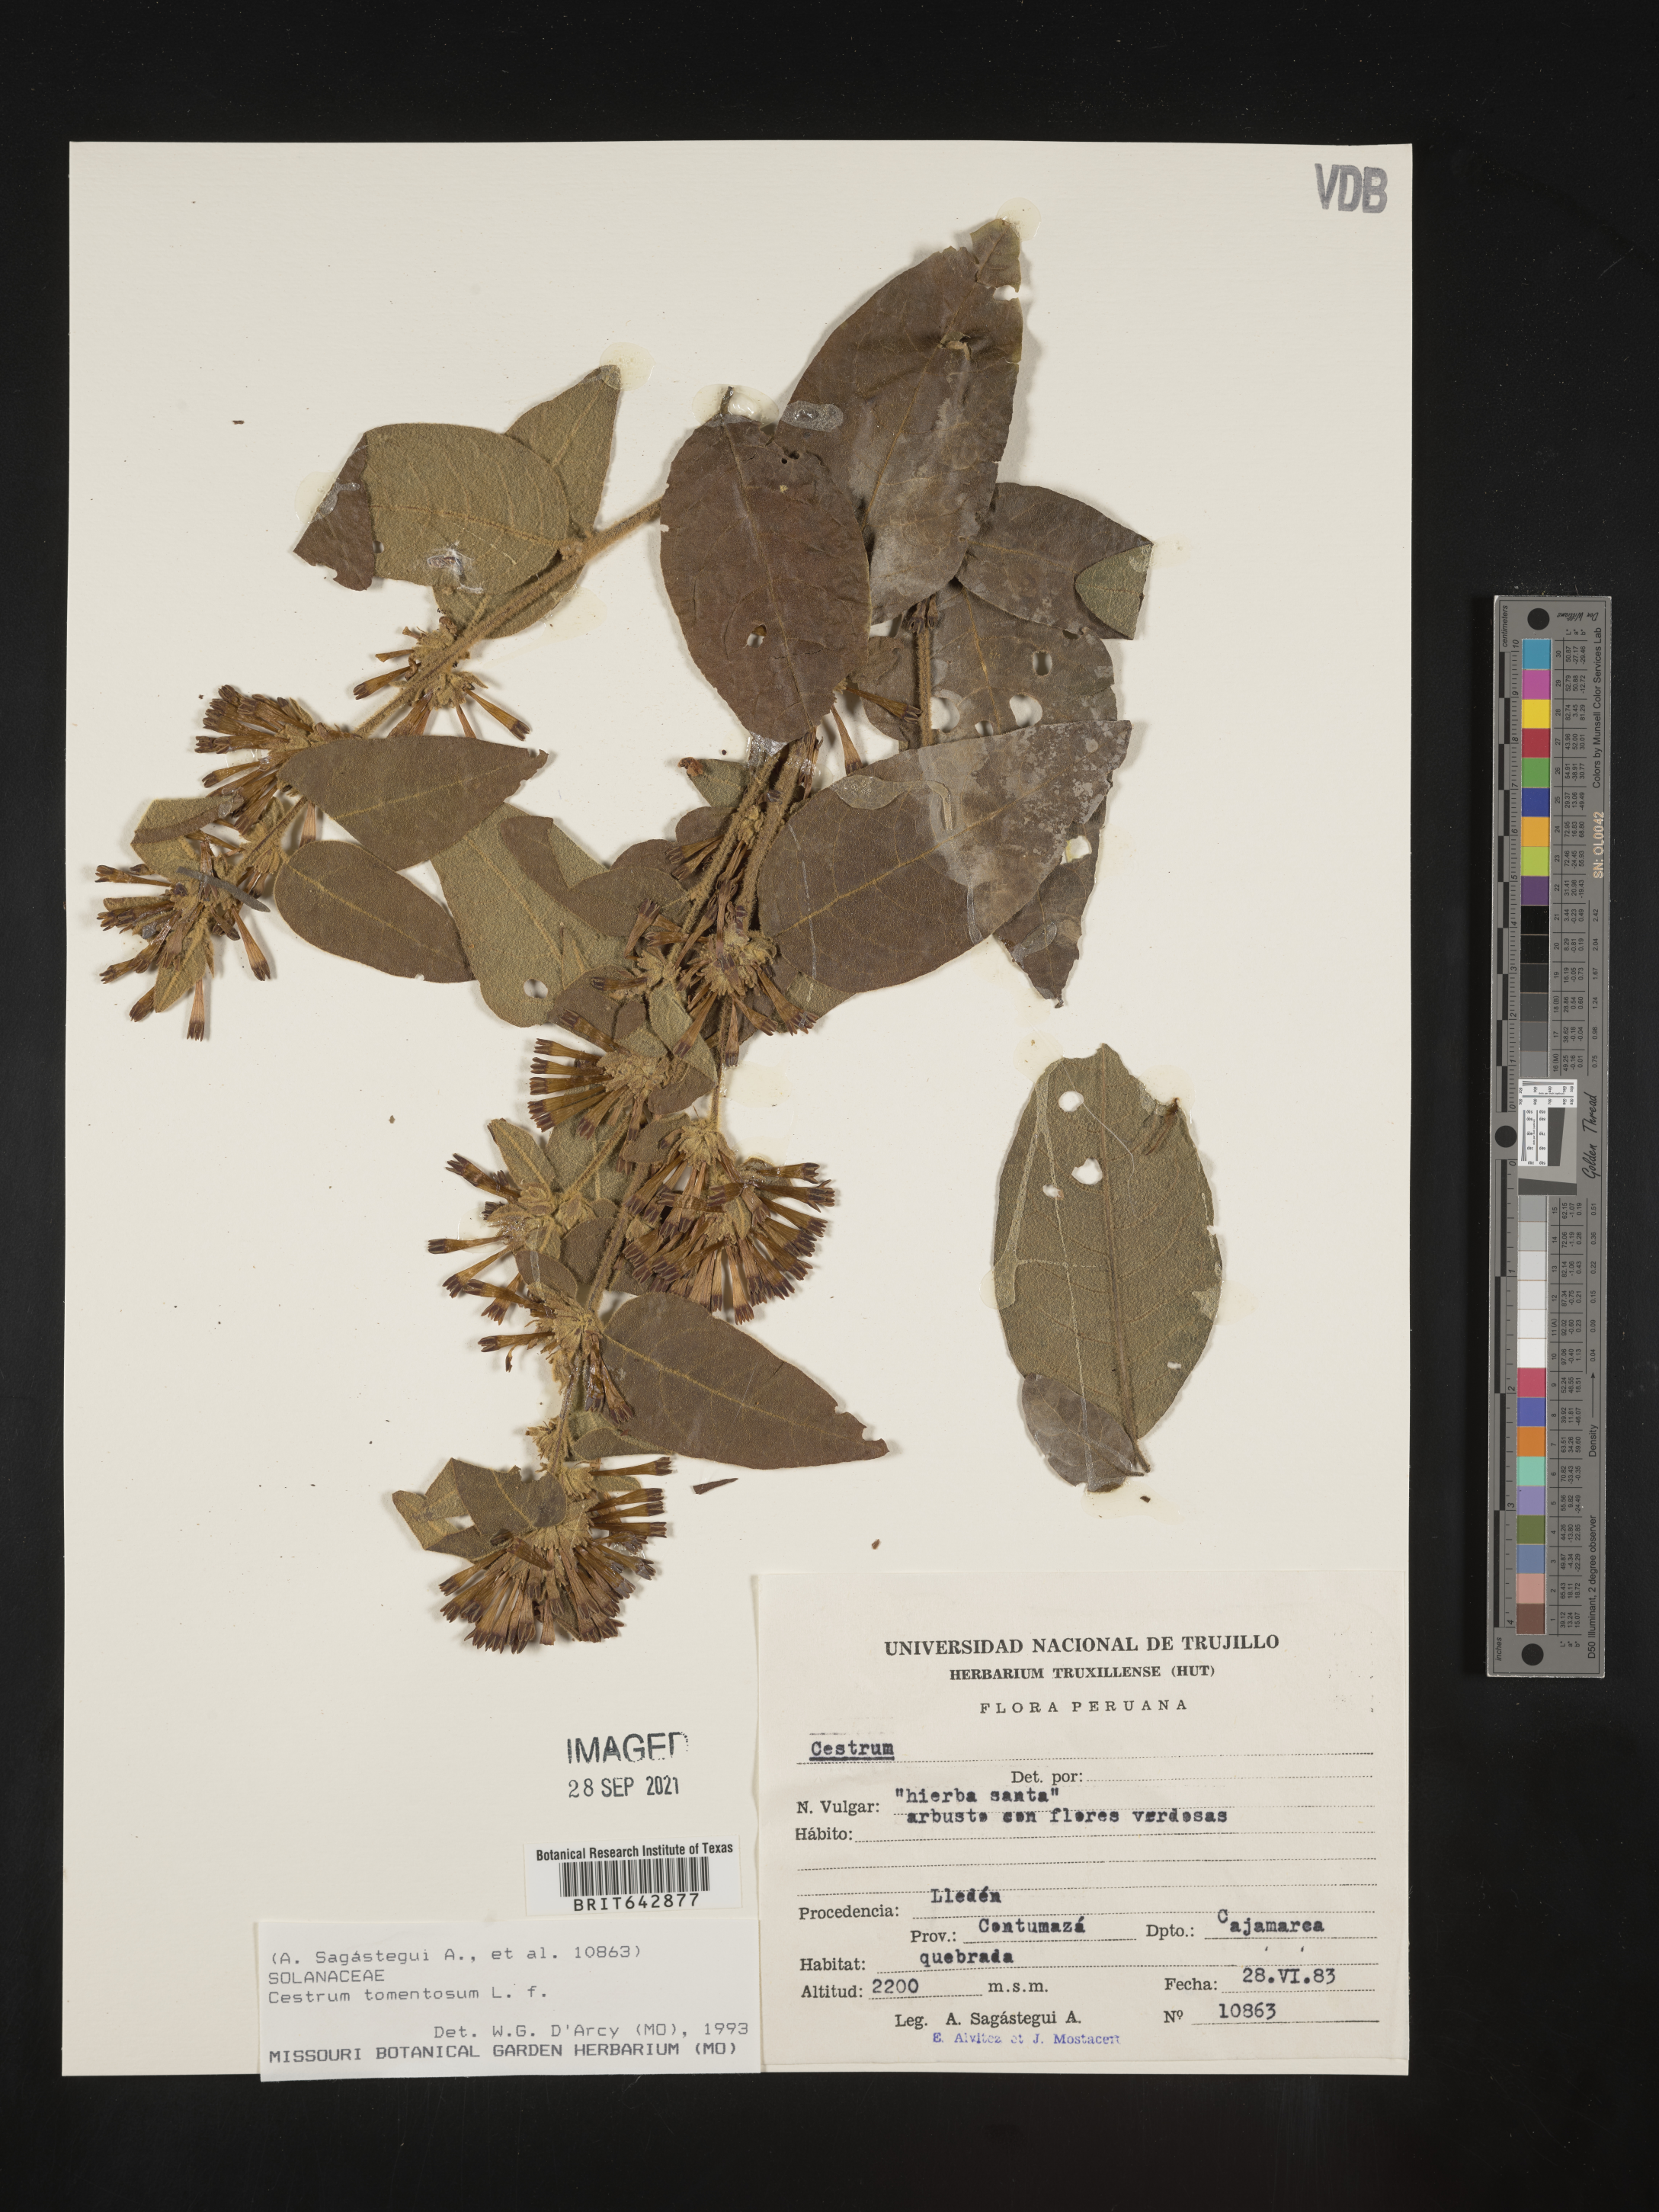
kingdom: Plantae
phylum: Tracheophyta
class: Magnoliopsida
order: Solanales
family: Solanaceae
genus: Cestrum
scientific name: Cestrum
